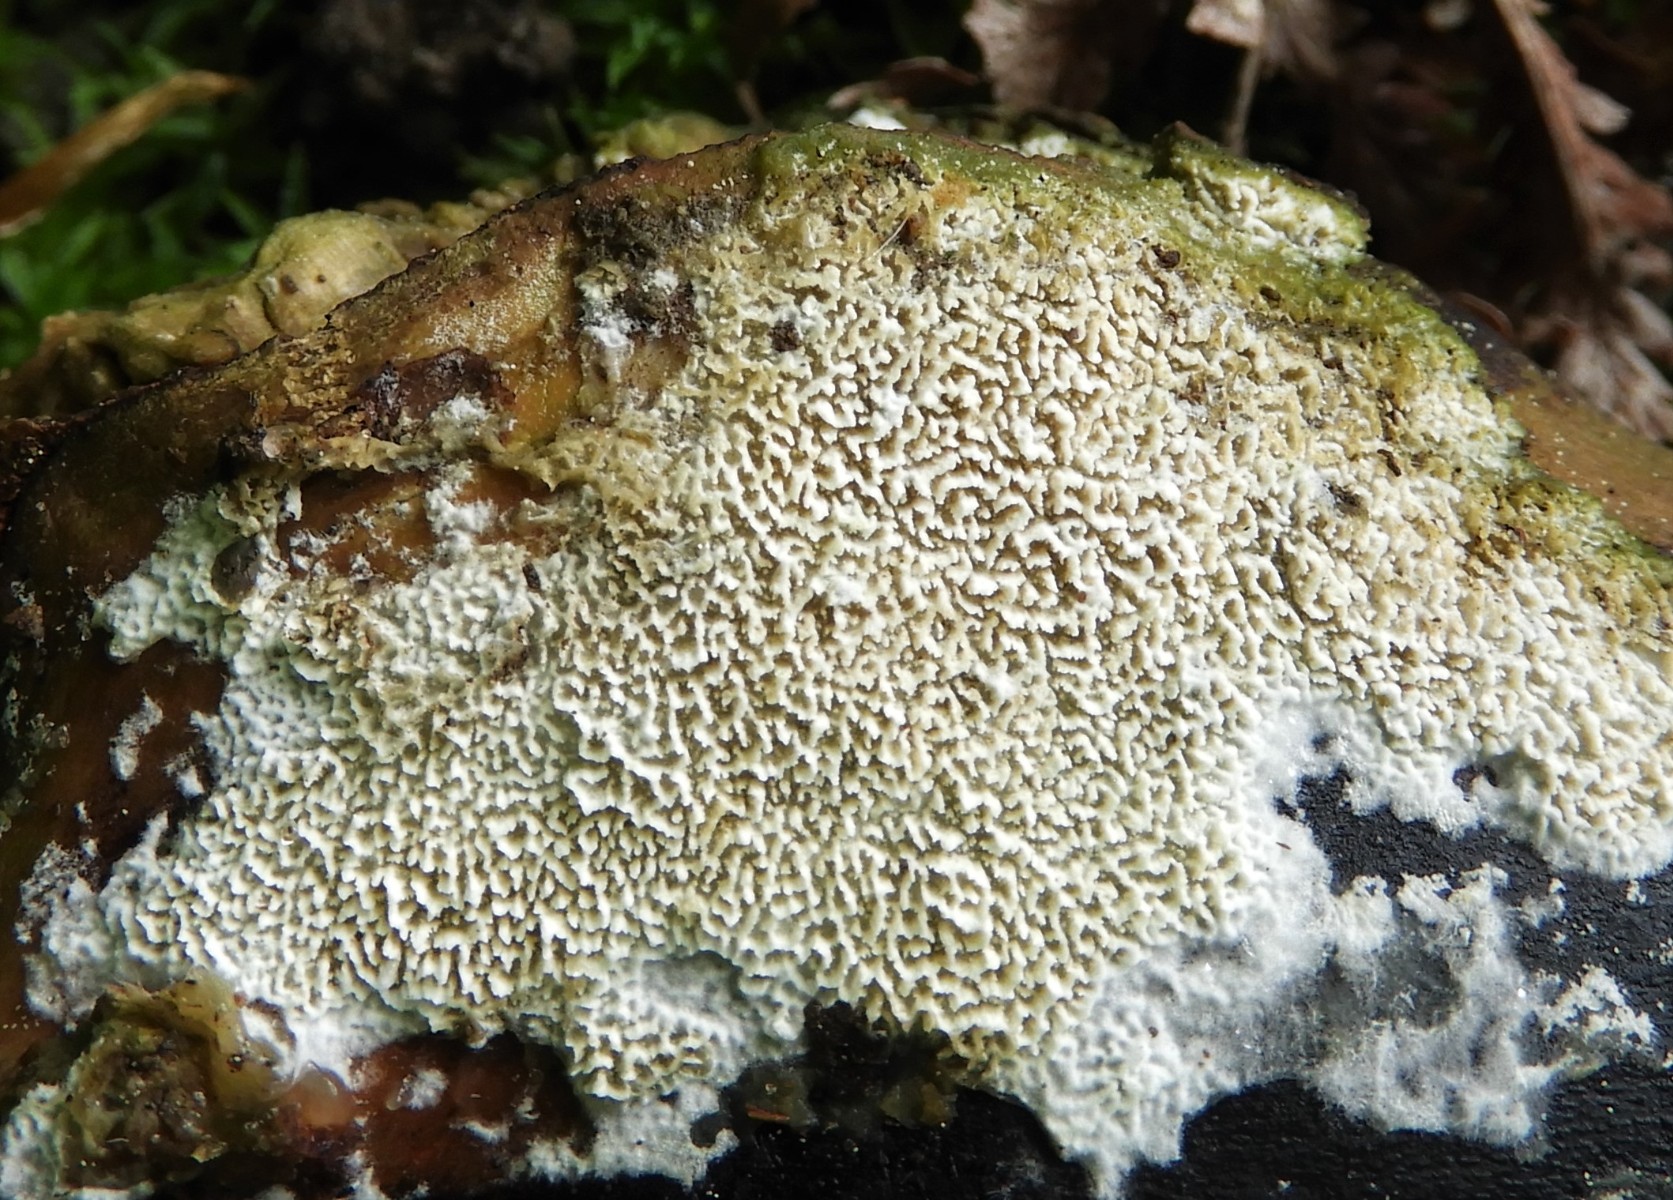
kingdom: Fungi
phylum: Basidiomycota
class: Agaricomycetes
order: Corticiales
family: Corticiaceae
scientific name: Corticiaceae
